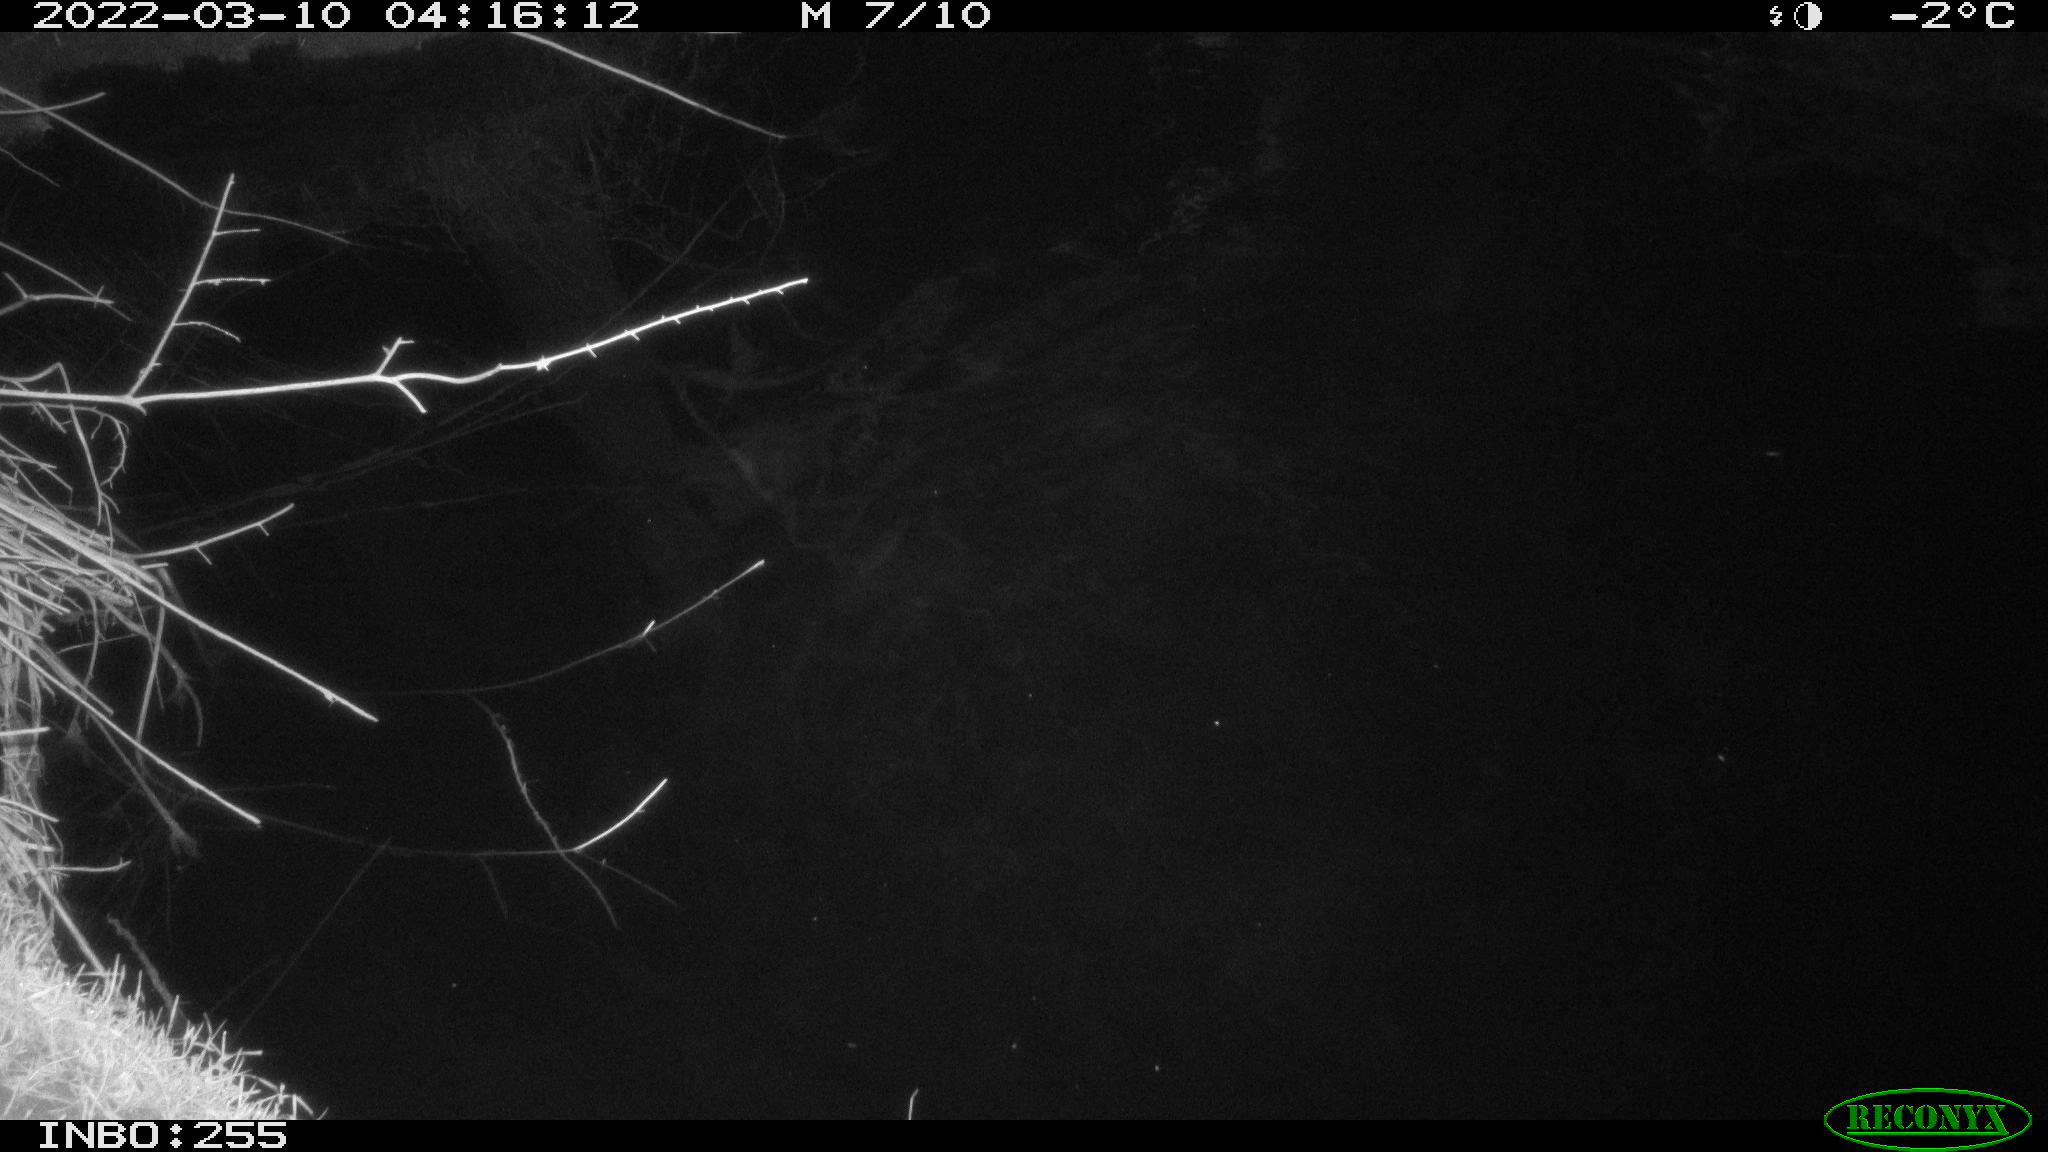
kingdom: Animalia
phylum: Chordata
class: Aves
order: Anseriformes
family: Anatidae
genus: Anas
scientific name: Anas platyrhynchos
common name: Mallard
